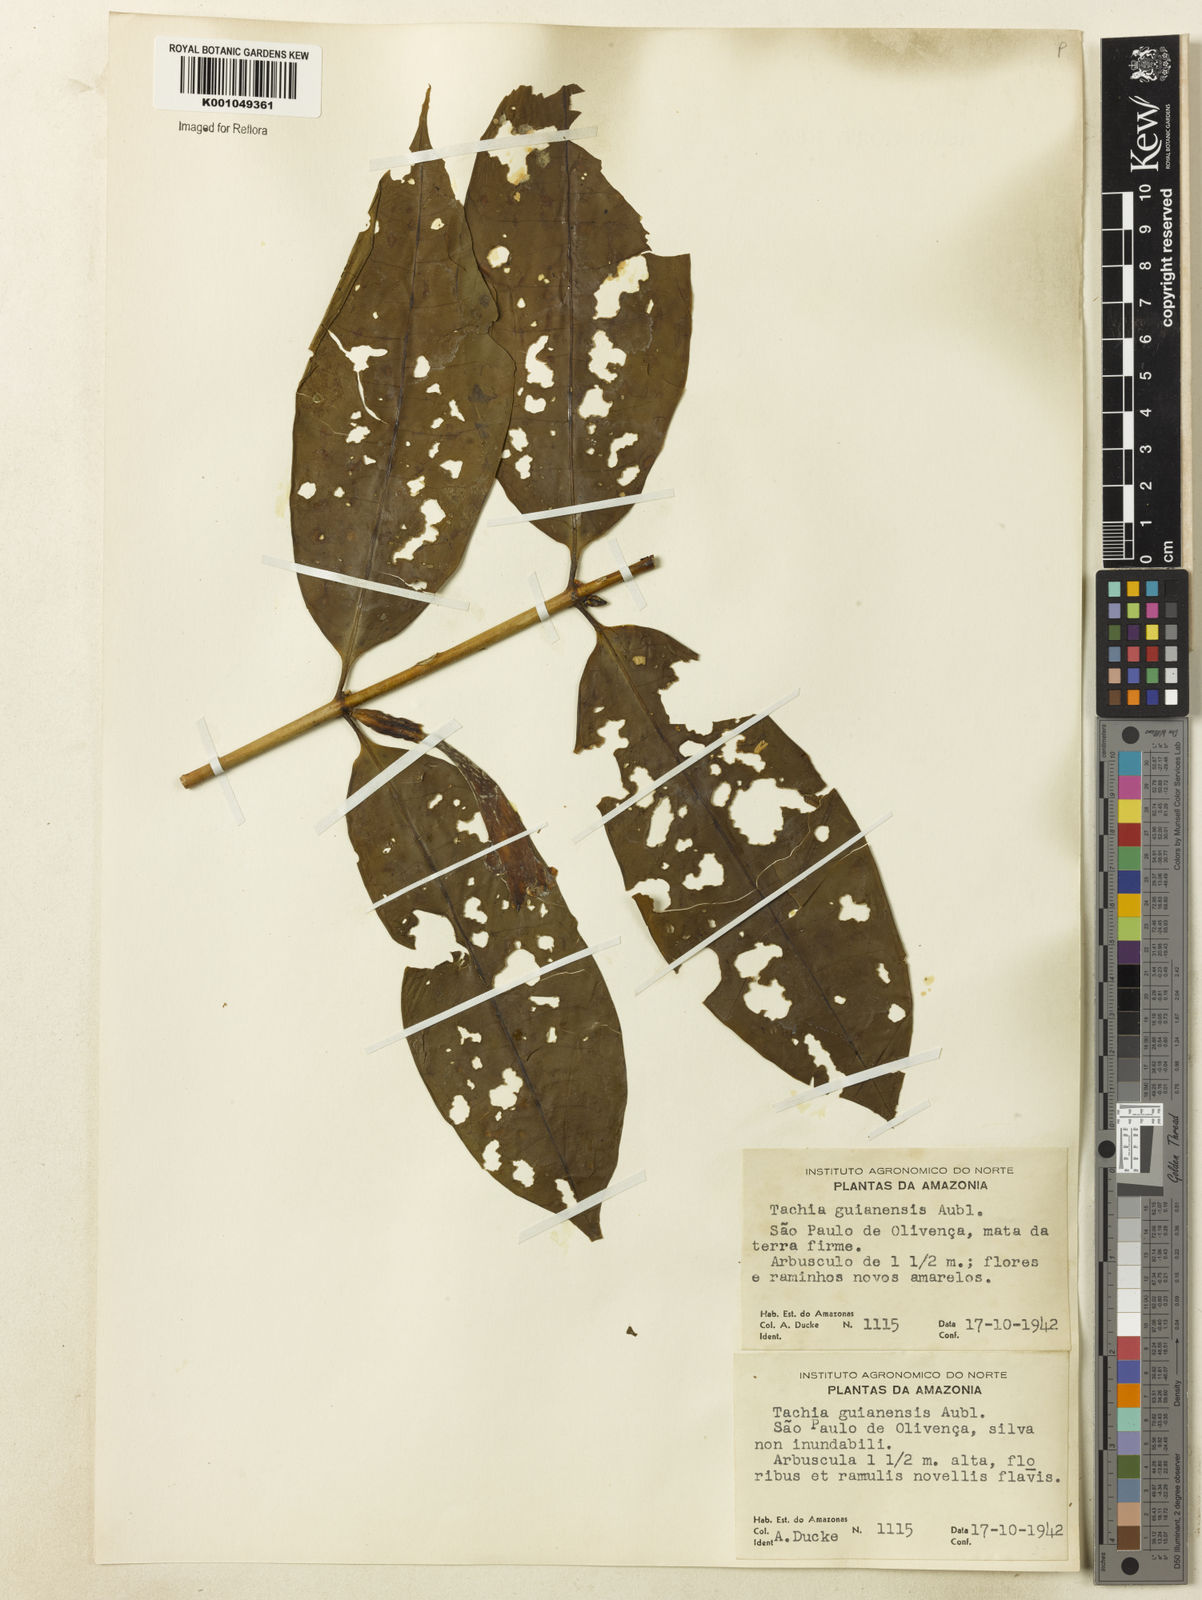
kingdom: Plantae
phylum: Tracheophyta
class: Magnoliopsida
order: Gentianales
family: Gentianaceae
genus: Tachia
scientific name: Tachia guianensis
